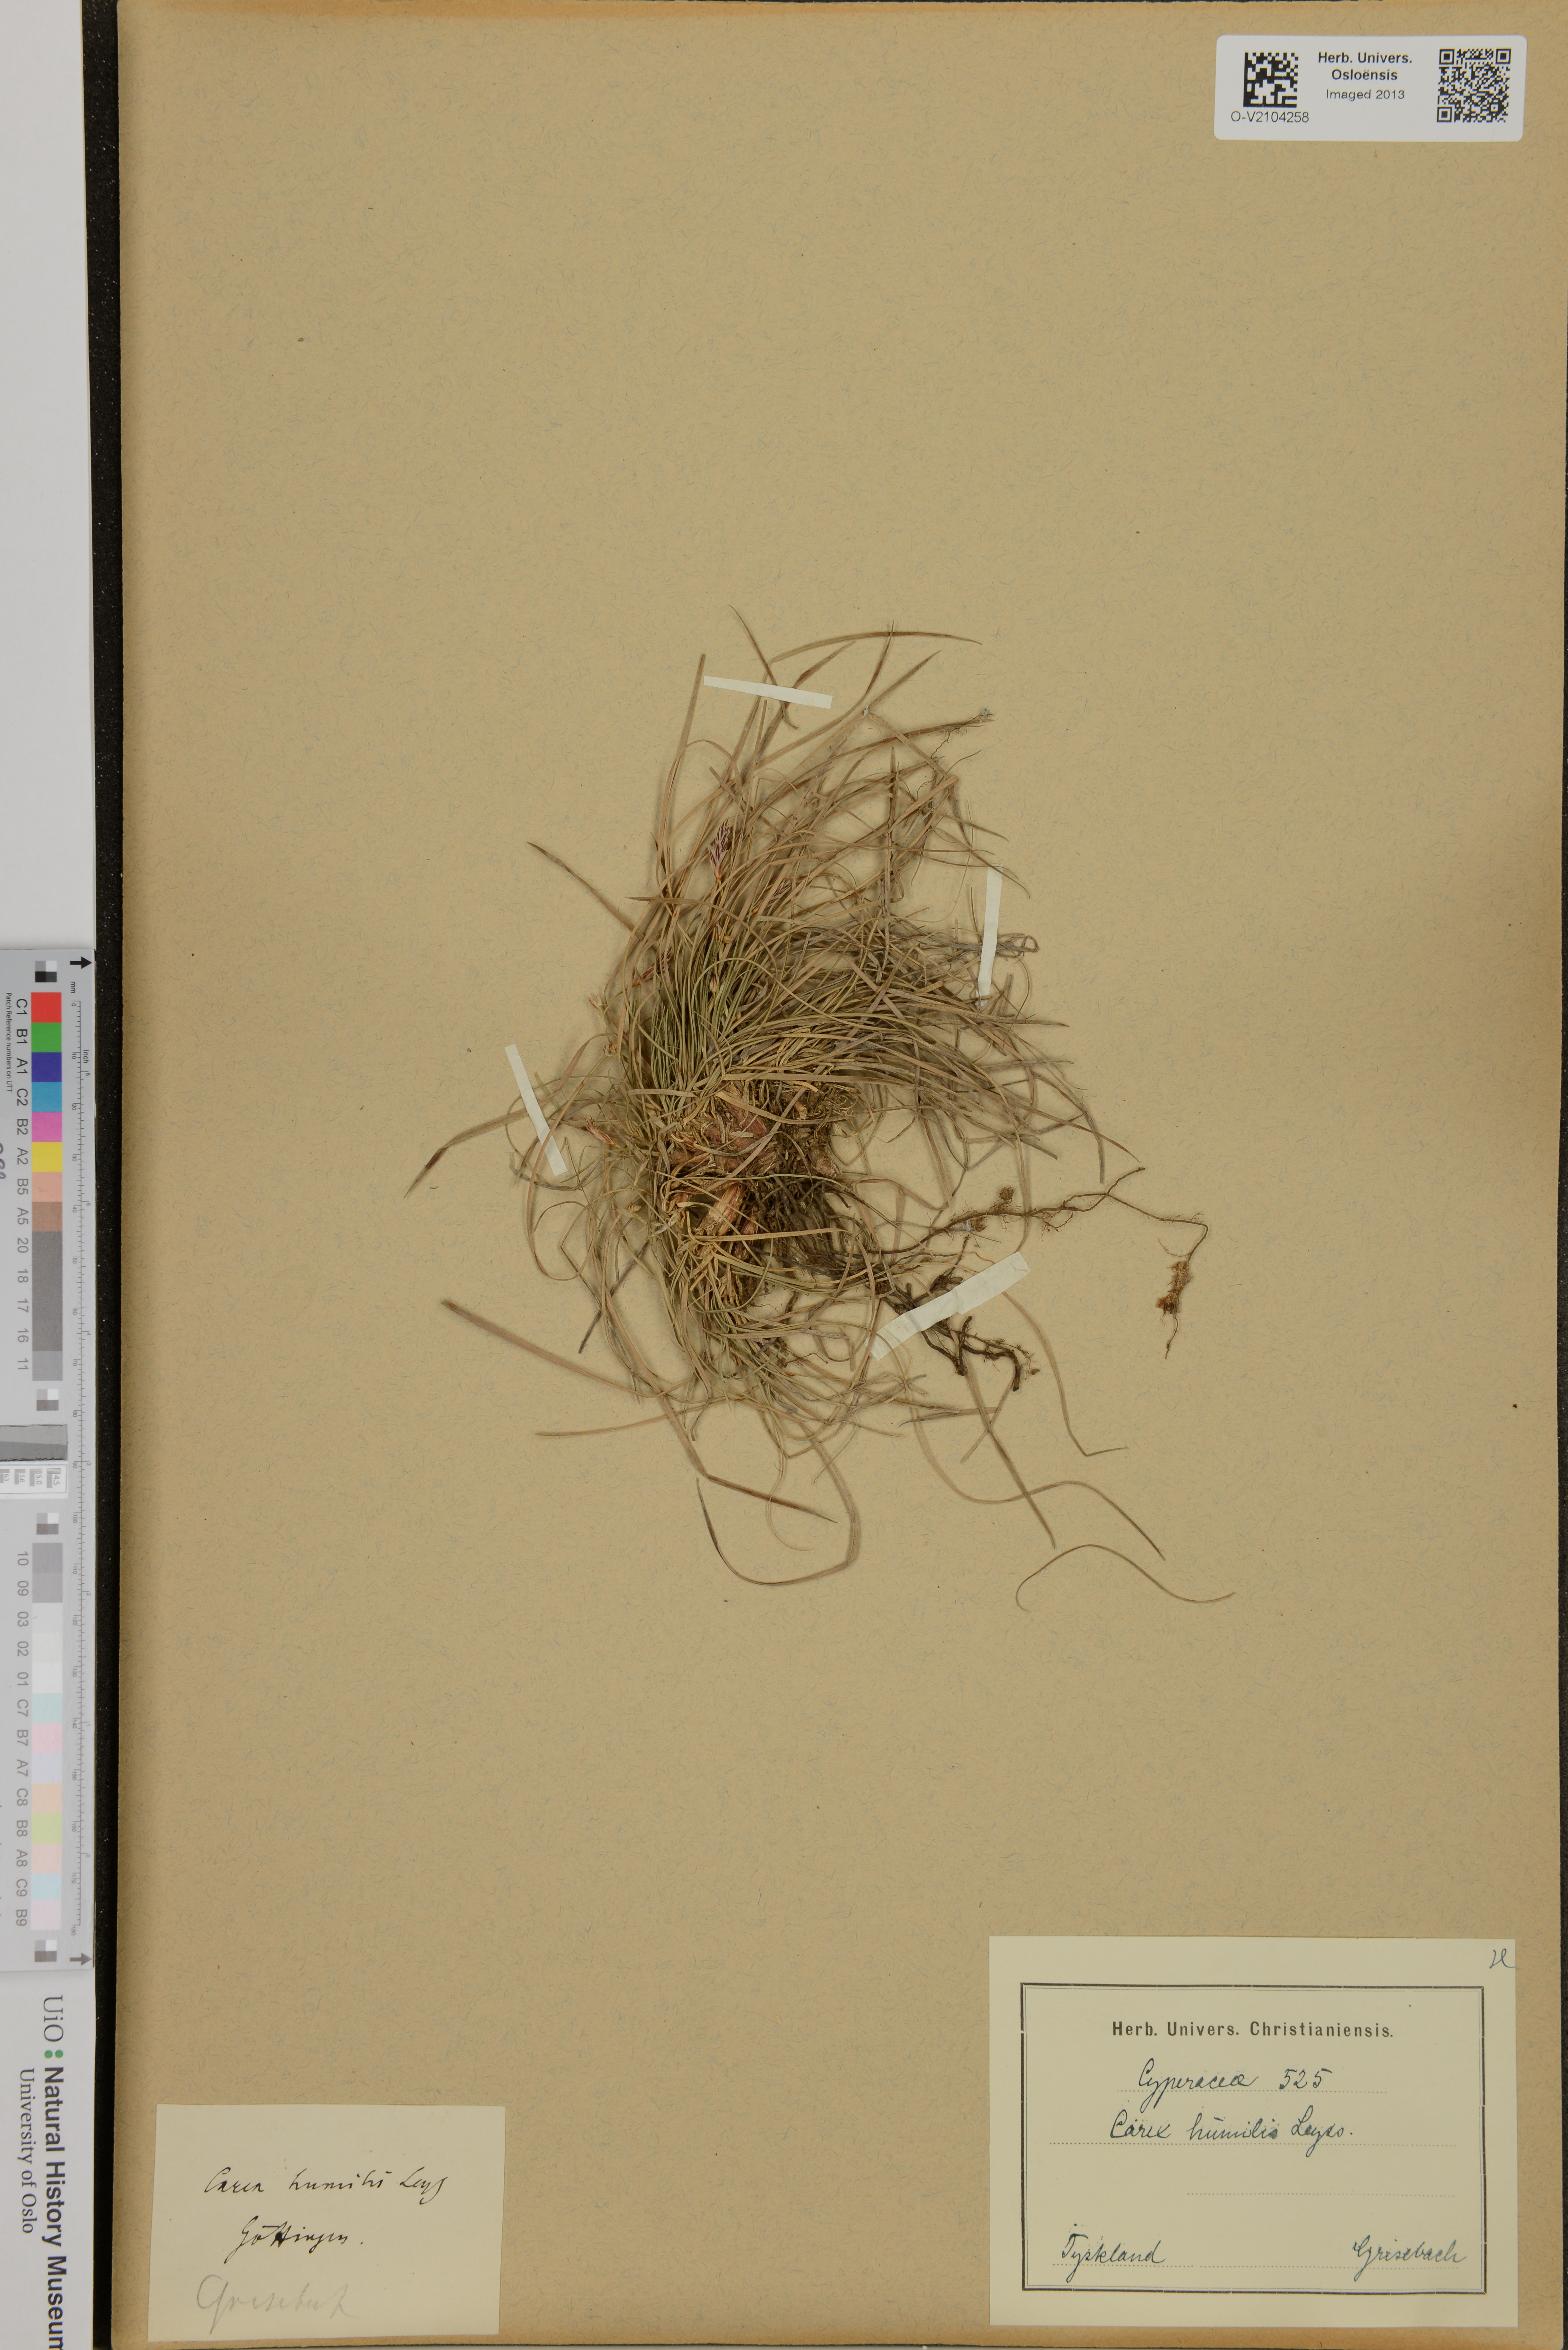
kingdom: Plantae
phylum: Tracheophyta
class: Liliopsida
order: Poales
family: Cyperaceae
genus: Carex
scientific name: Carex humilis
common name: Dwarf sedge
